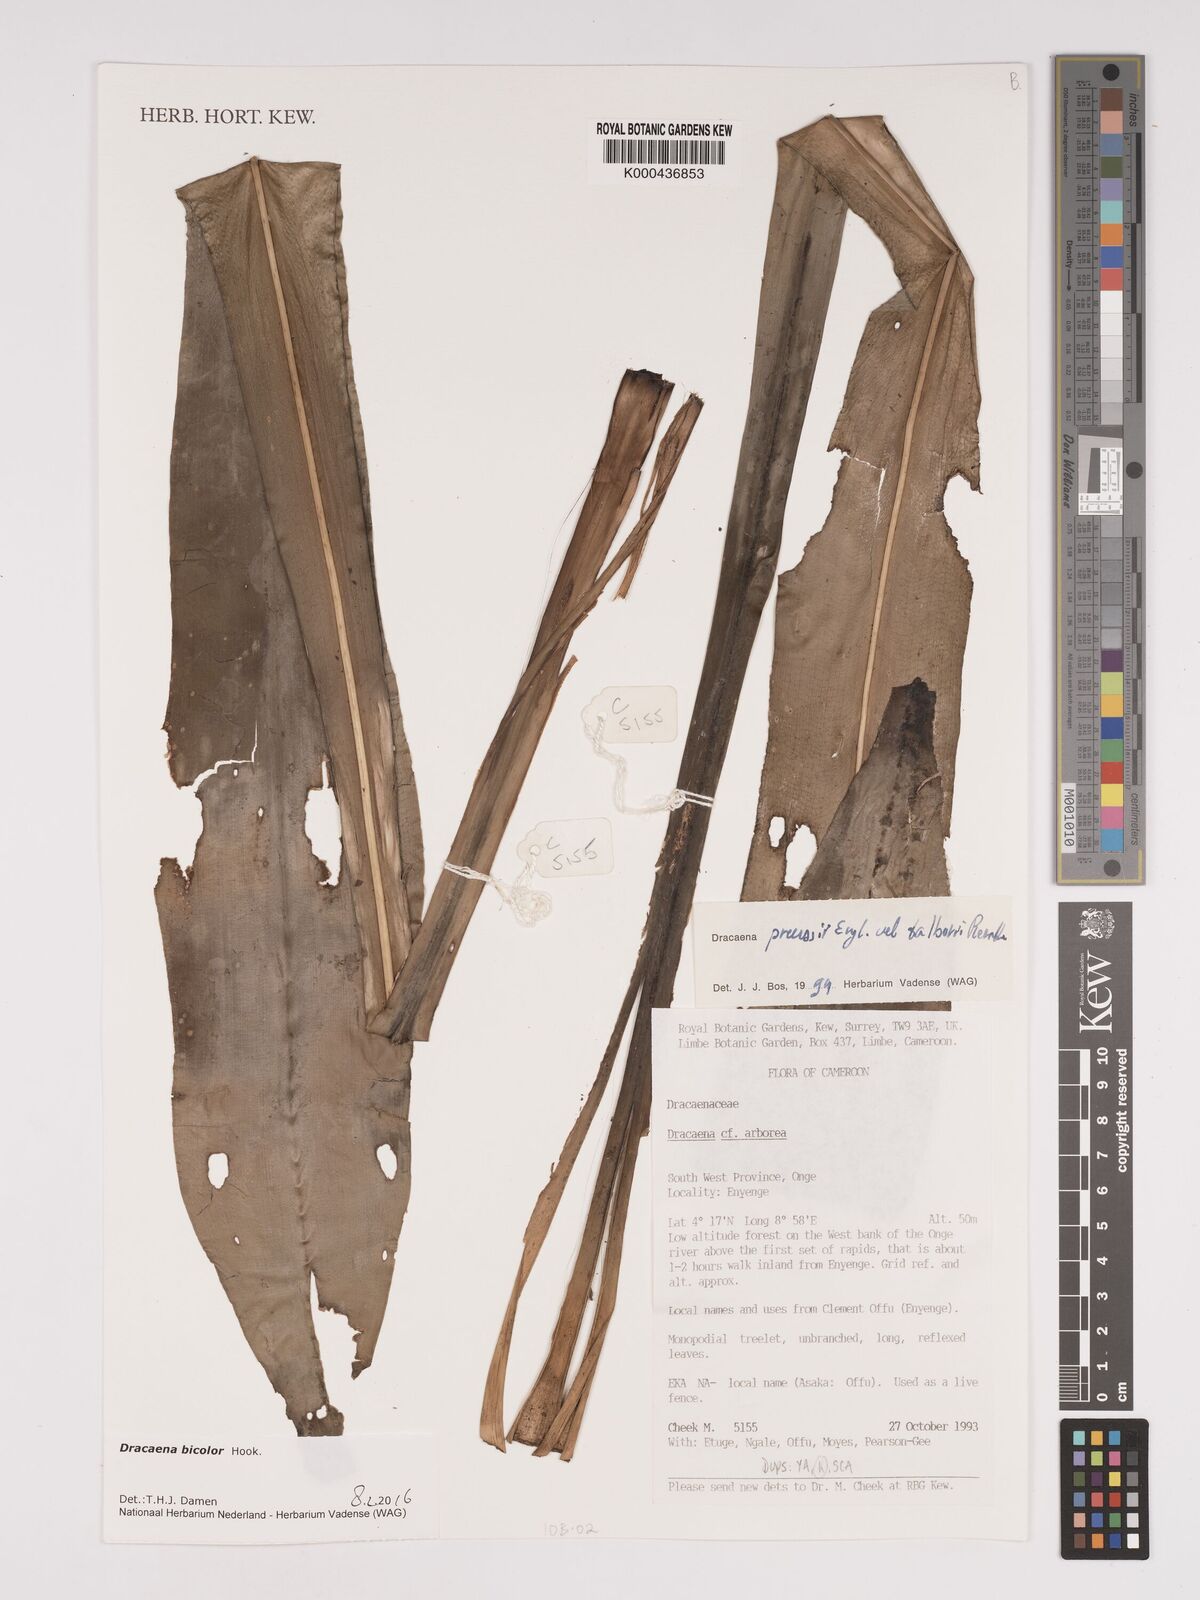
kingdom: Plantae
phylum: Tracheophyta
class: Liliopsida
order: Asparagales
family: Asparagaceae
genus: Dracaena
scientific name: Dracaena bicolor
